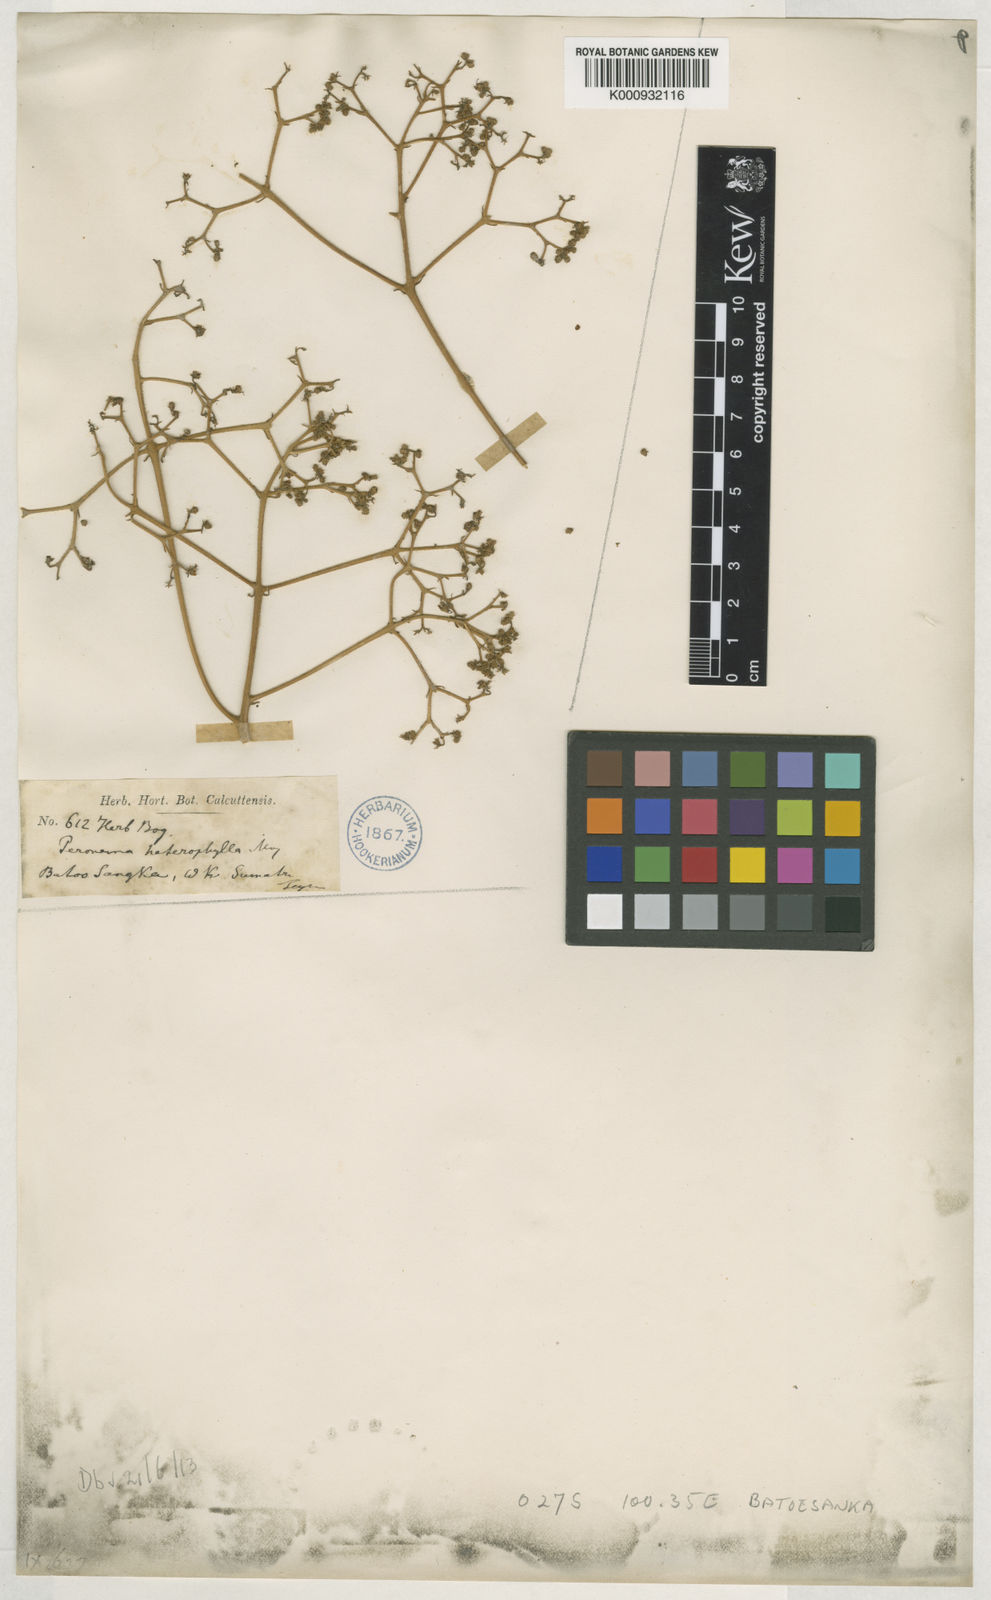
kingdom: Plantae
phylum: Tracheophyta
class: Magnoliopsida
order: Lamiales
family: Lamiaceae
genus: Peronema
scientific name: Peronema canescens
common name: False elder
